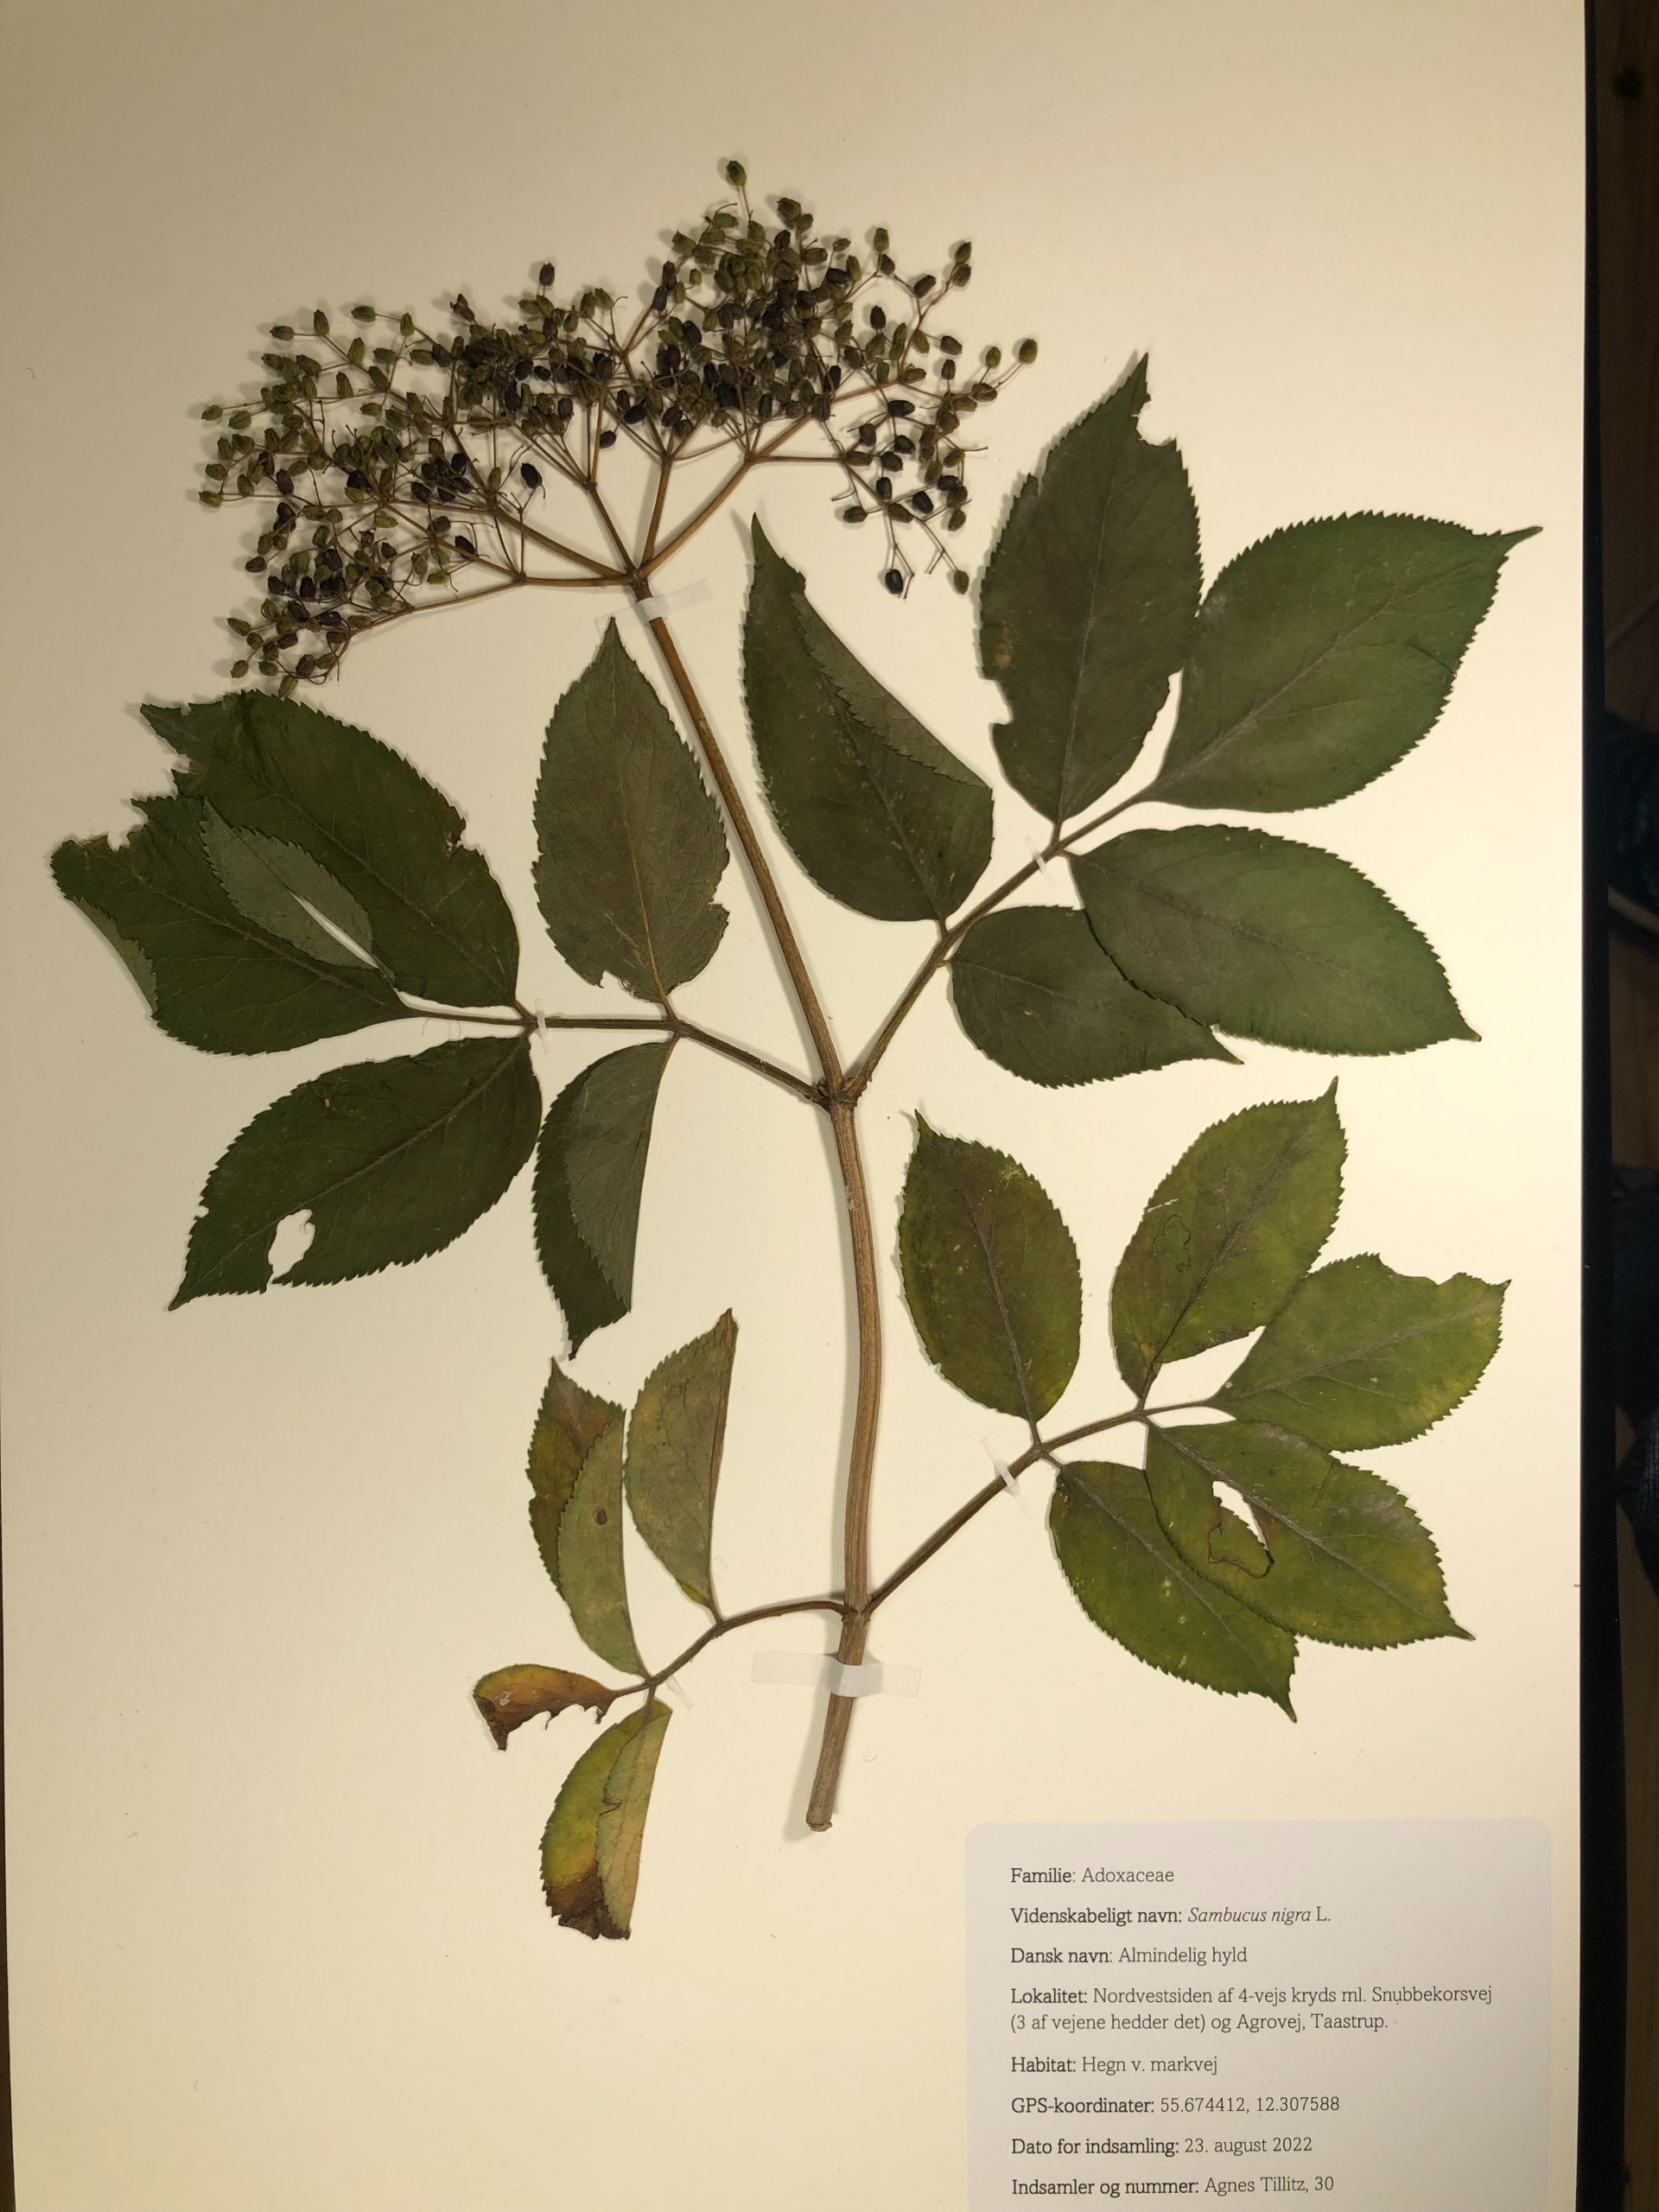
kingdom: Plantae
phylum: Tracheophyta
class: Magnoliopsida
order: Dipsacales
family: Viburnaceae
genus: Sambucus
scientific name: Sambucus nigra
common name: Almindelig hyld
